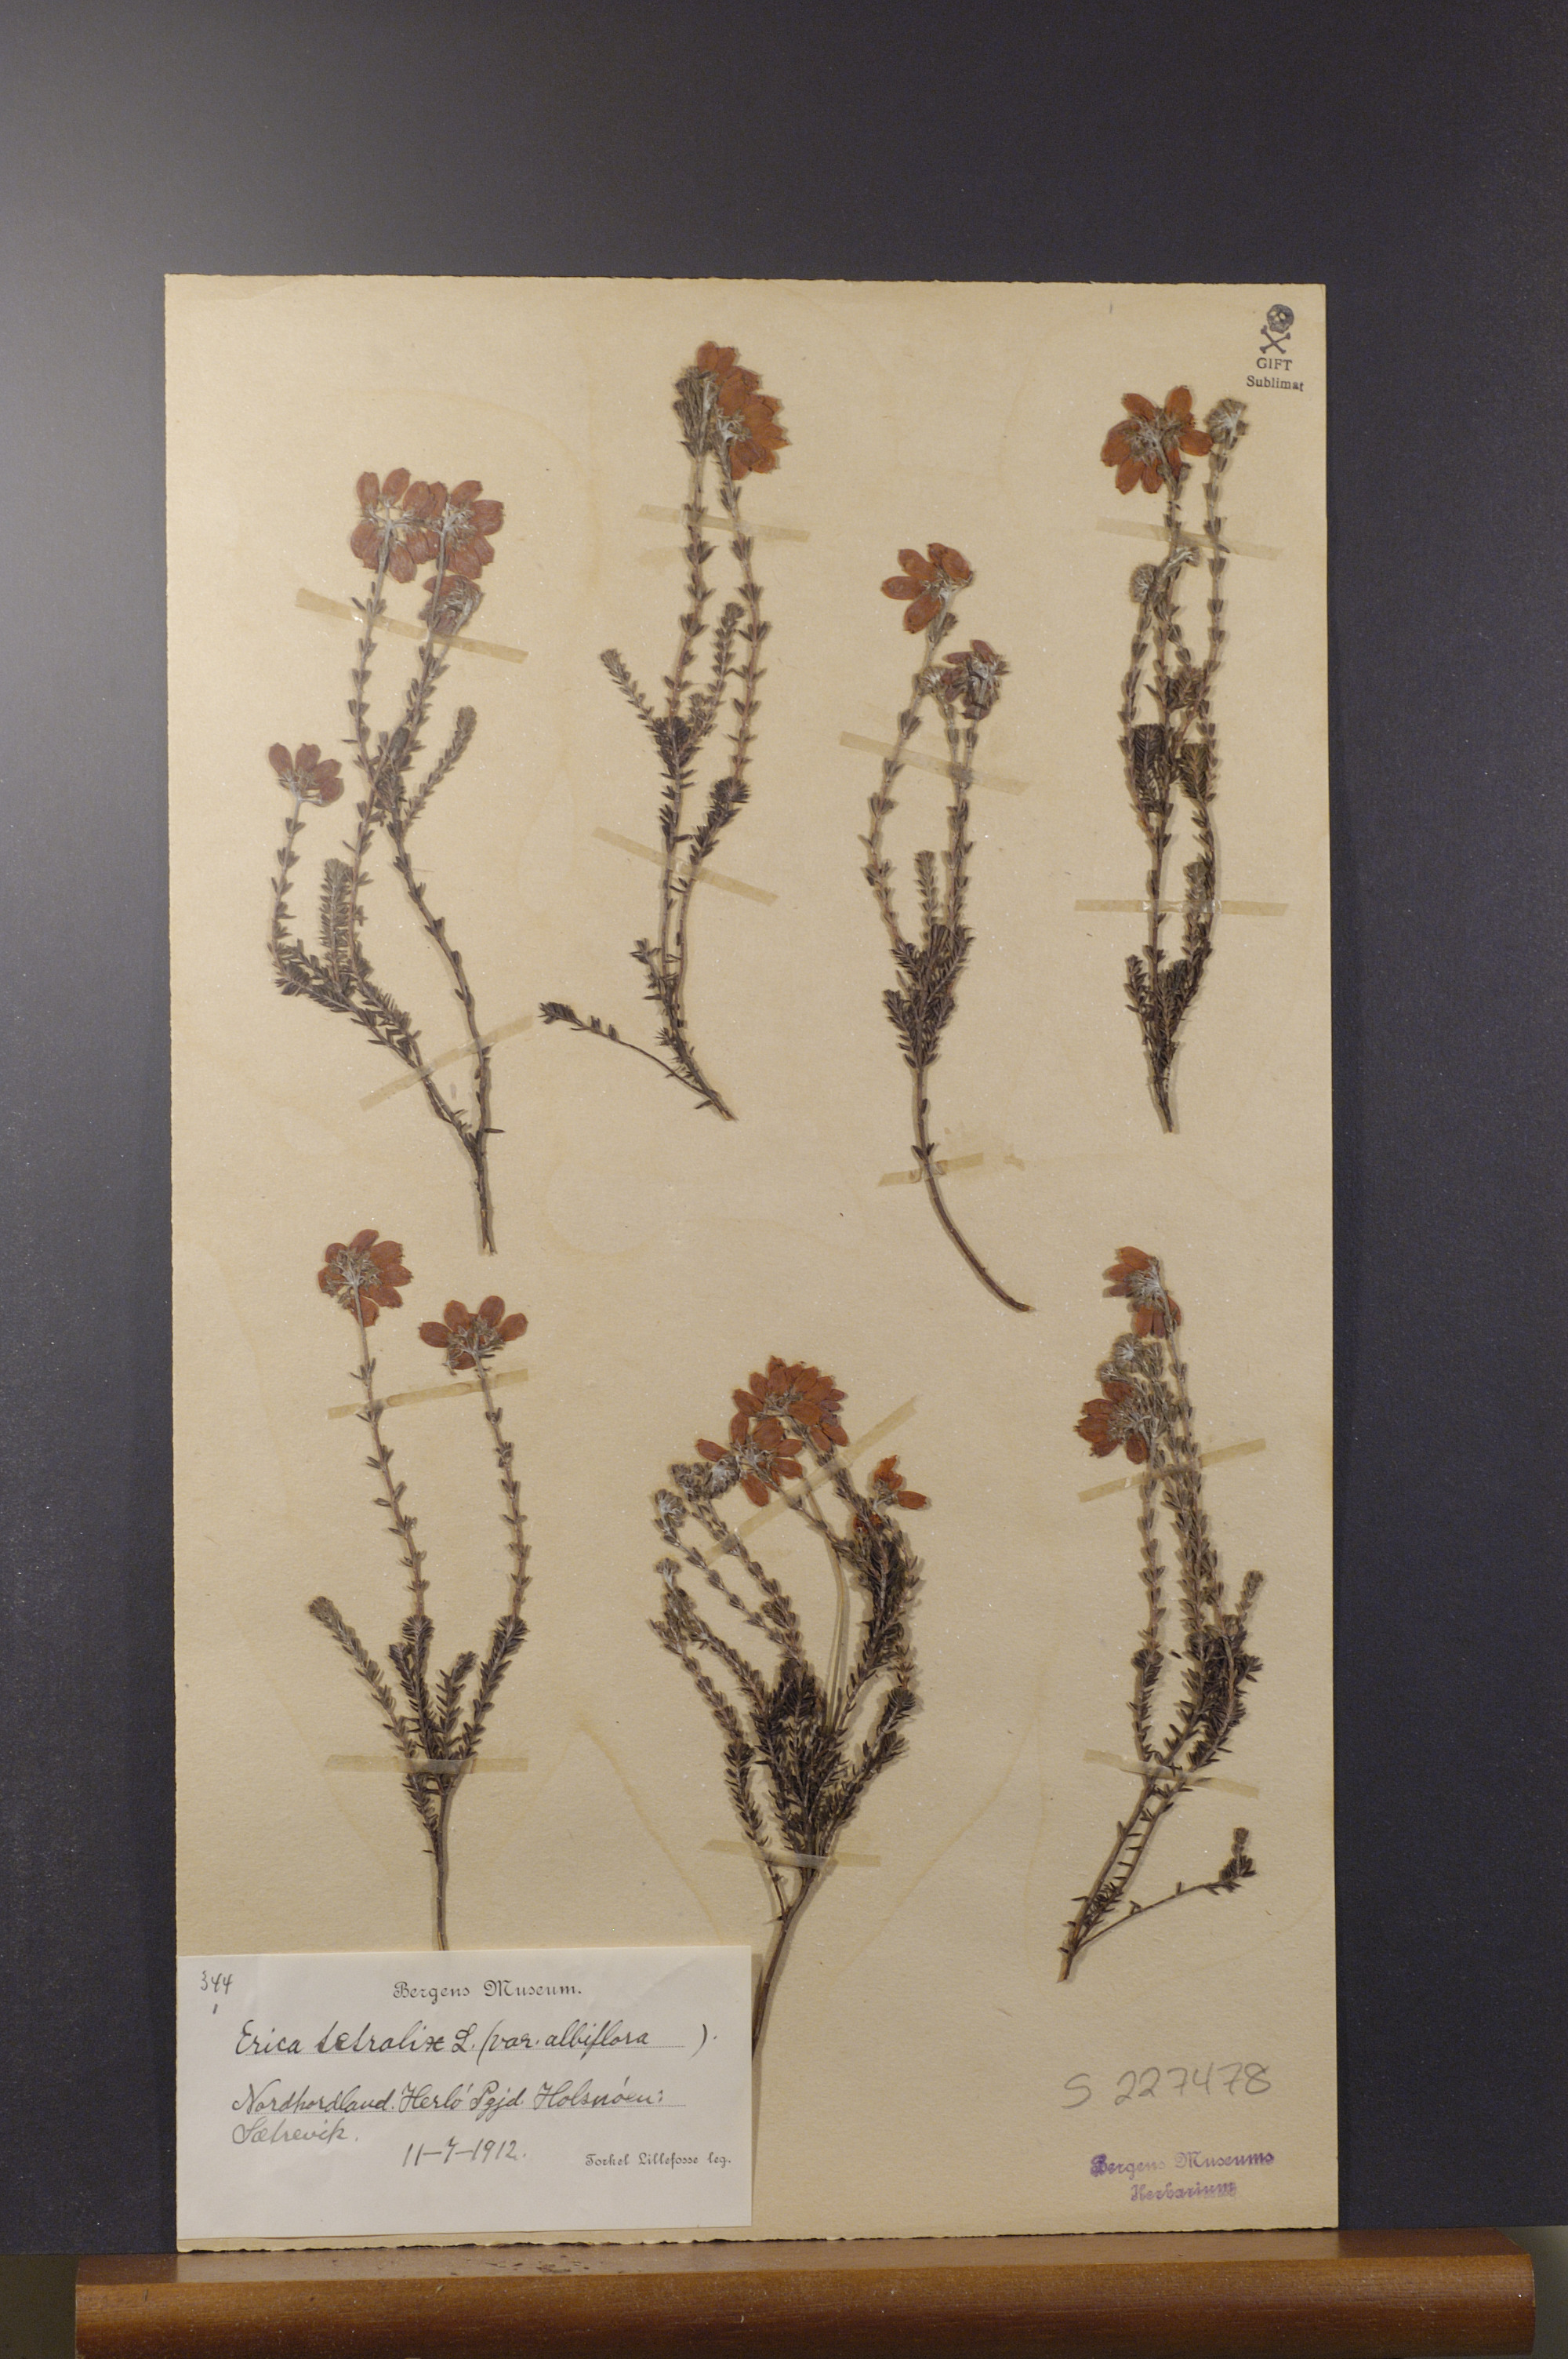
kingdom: Plantae
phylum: Tracheophyta
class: Magnoliopsida
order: Ericales
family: Ericaceae
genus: Erica
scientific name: Erica tetralix
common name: Cross-leaved heath
